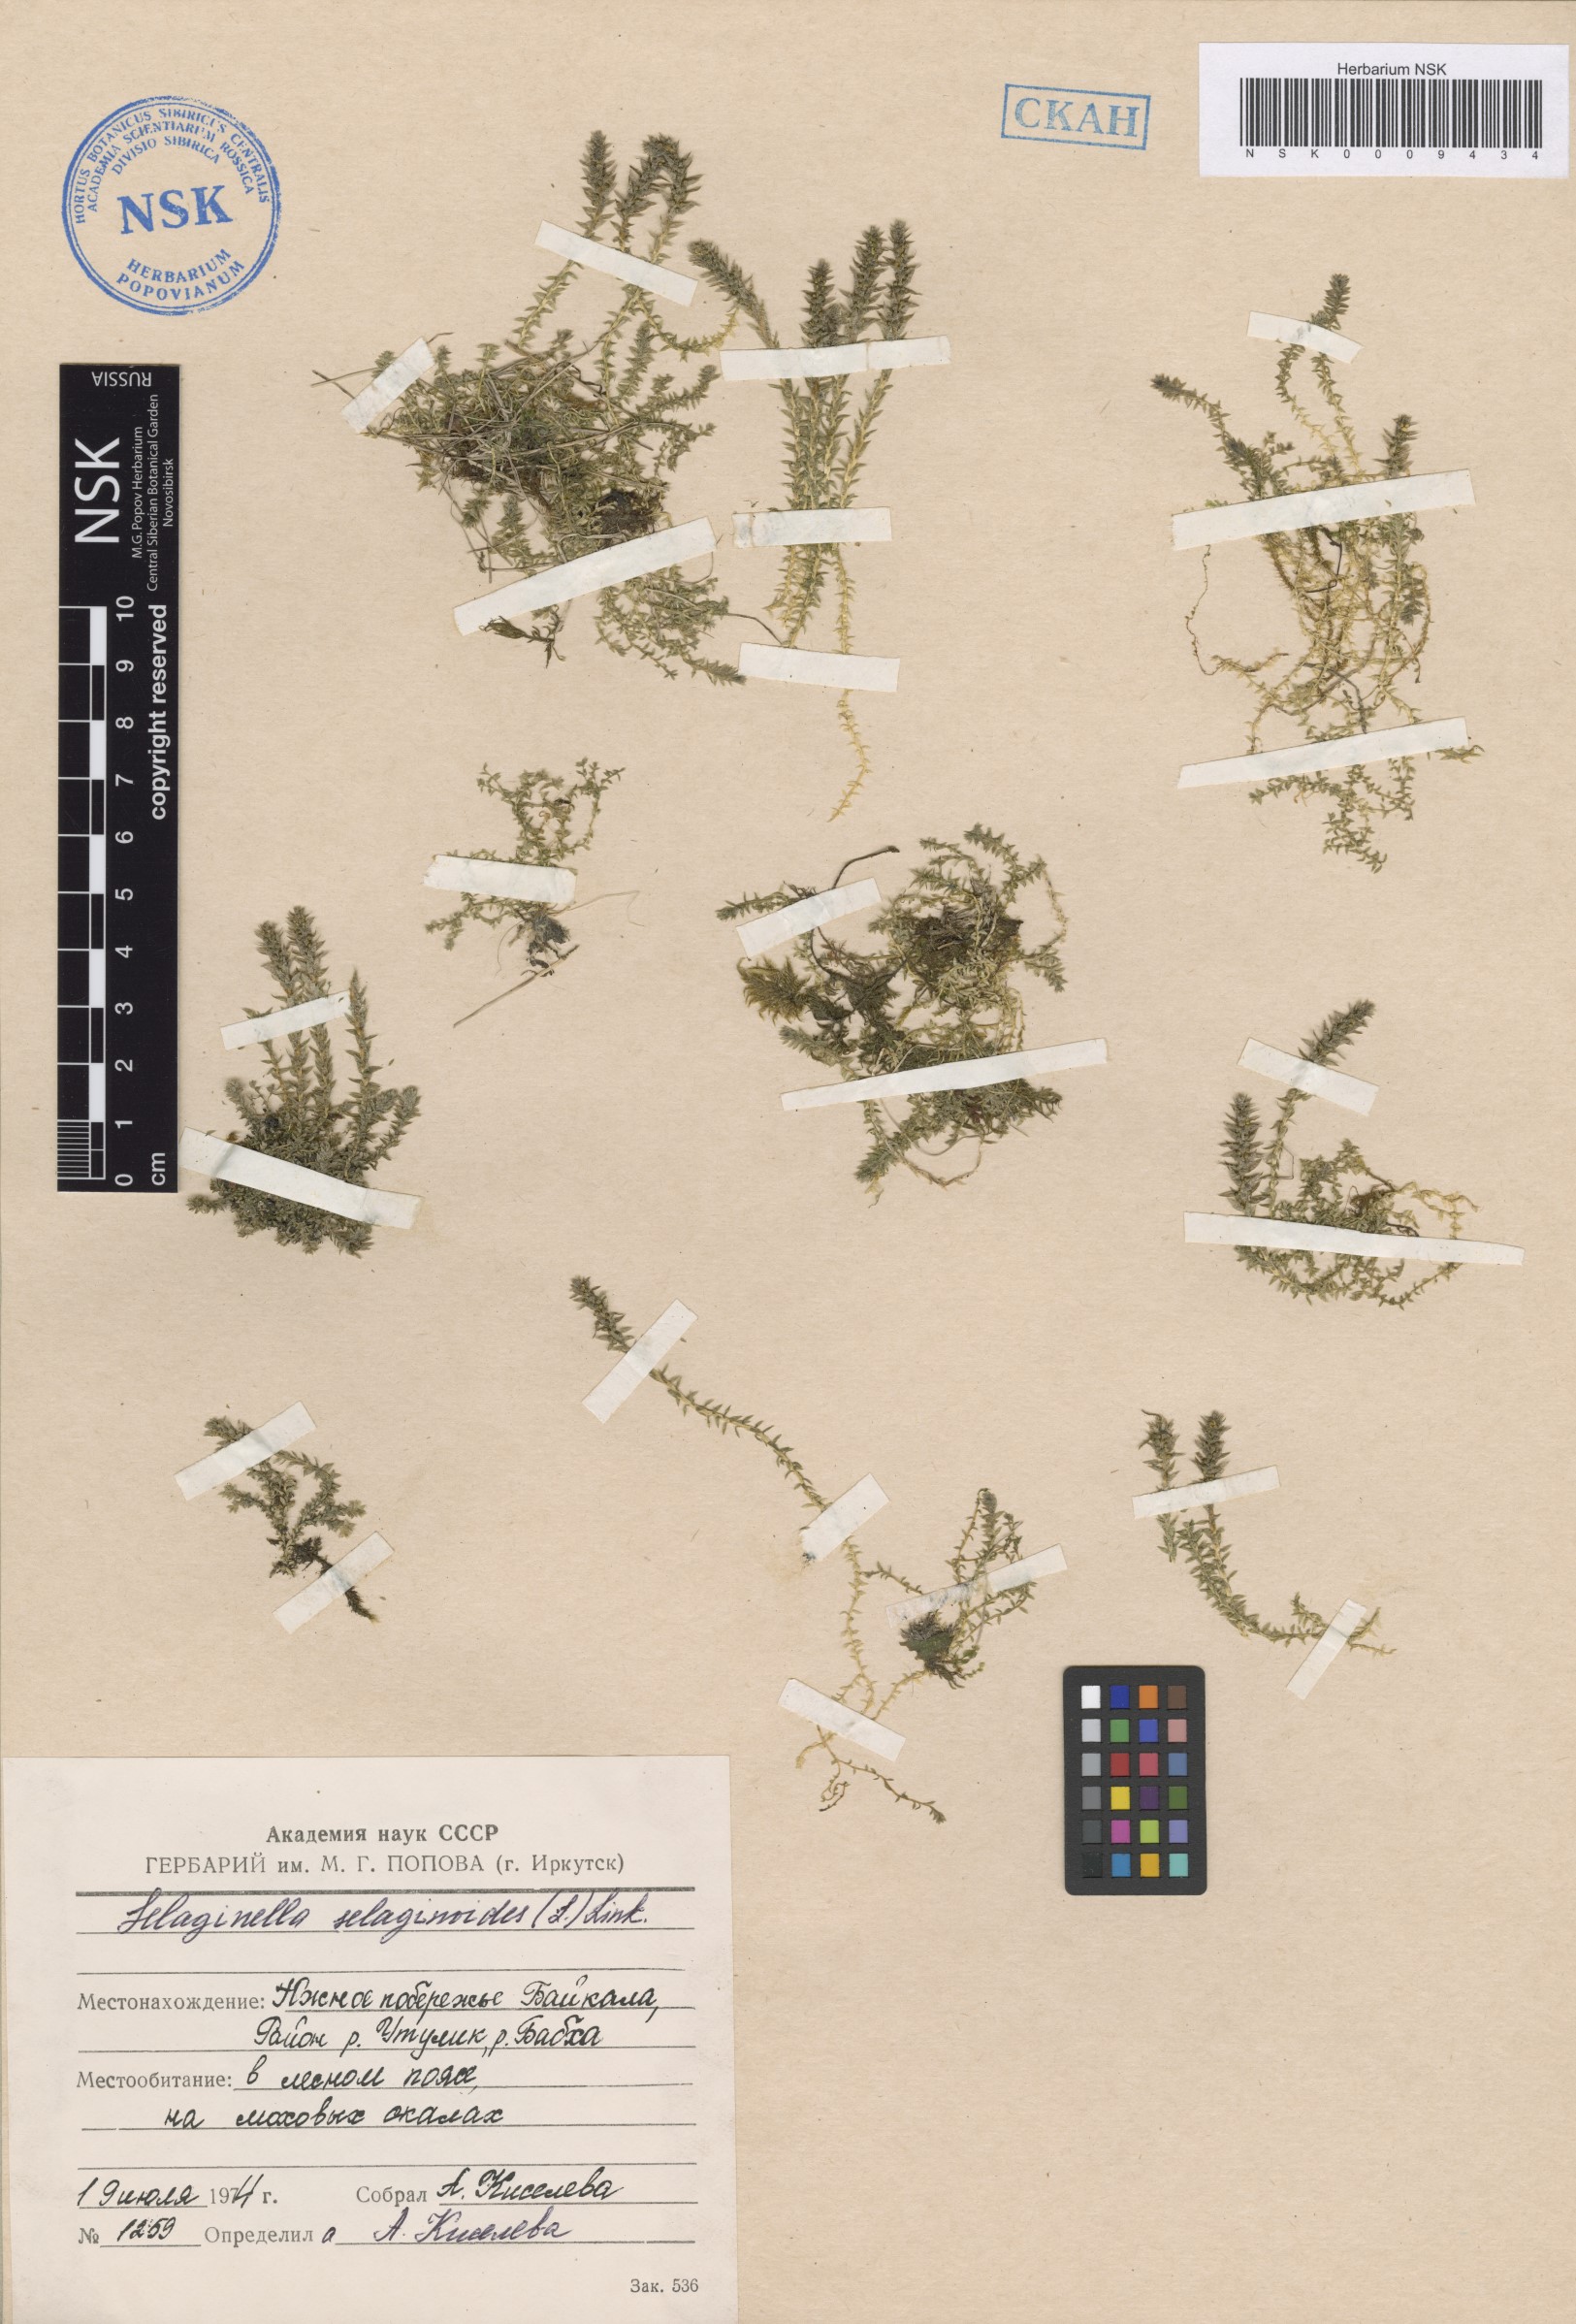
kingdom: Plantae
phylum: Tracheophyta
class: Lycopodiopsida
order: Selaginellales
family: Selaginellaceae
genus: Selaginella
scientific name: Selaginella selaginoides
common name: Prickly mountain-moss
